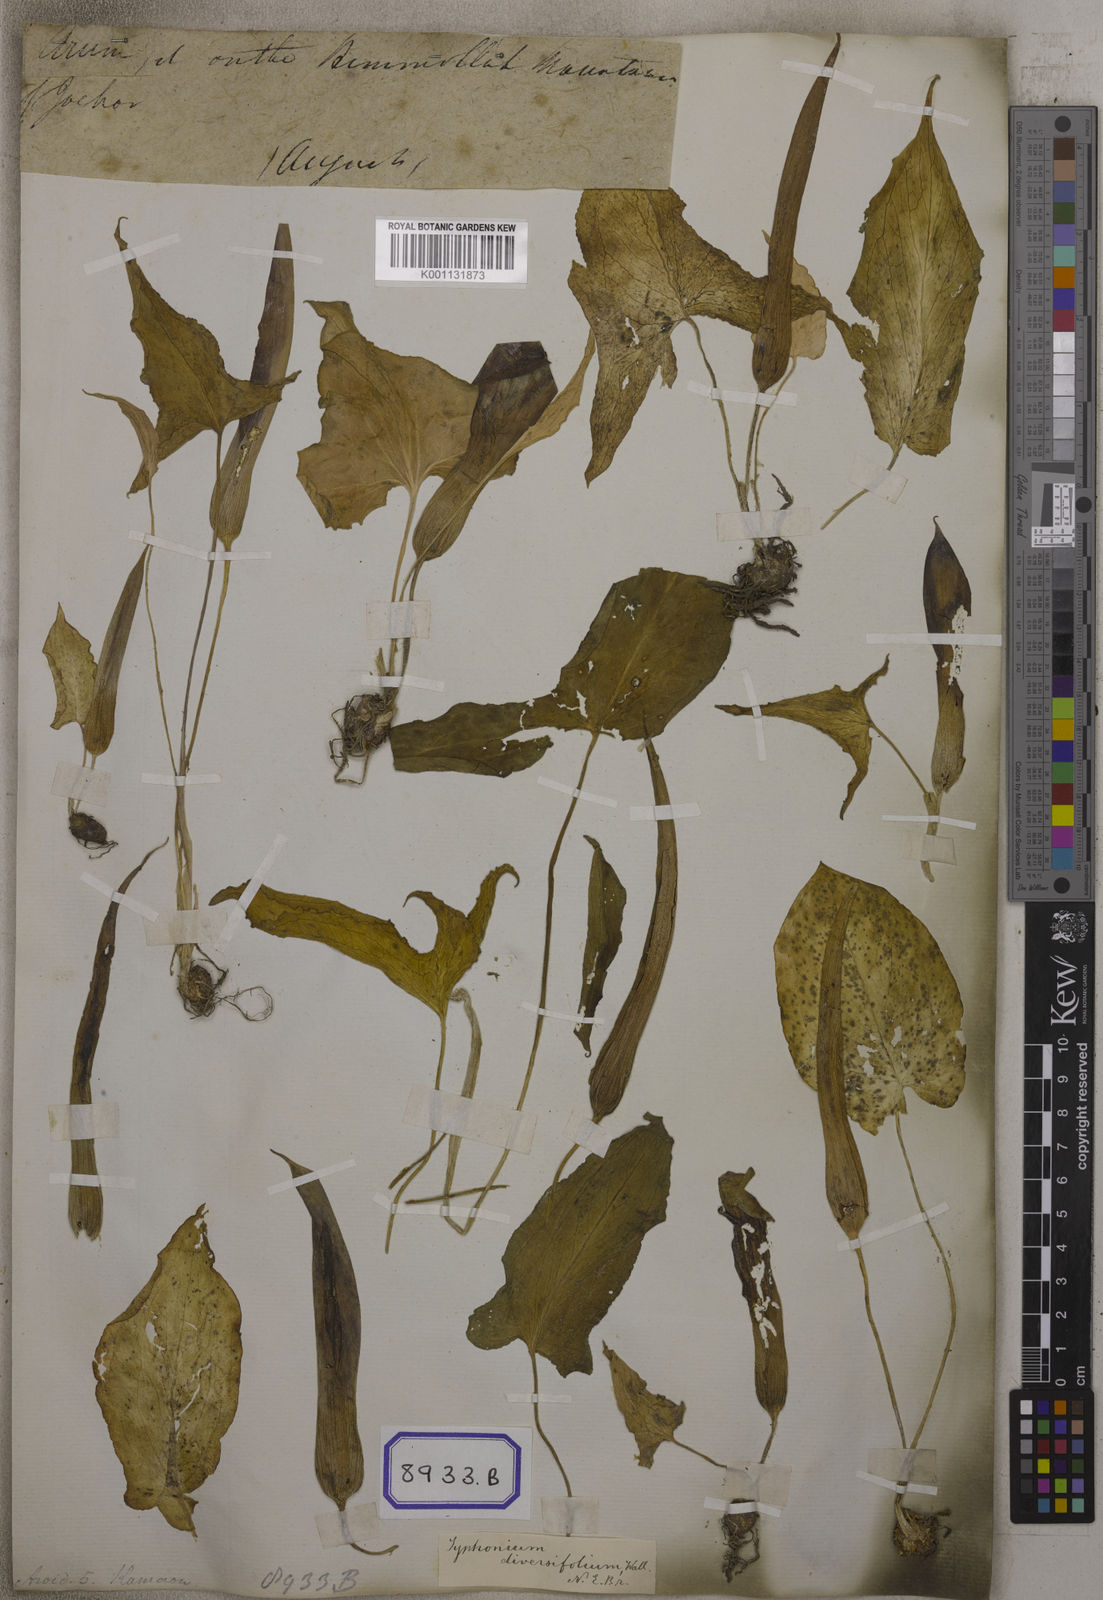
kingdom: Plantae
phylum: Tracheophyta
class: Liliopsida
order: Alismatales
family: Araceae
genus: Typhonium
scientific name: Typhonium
